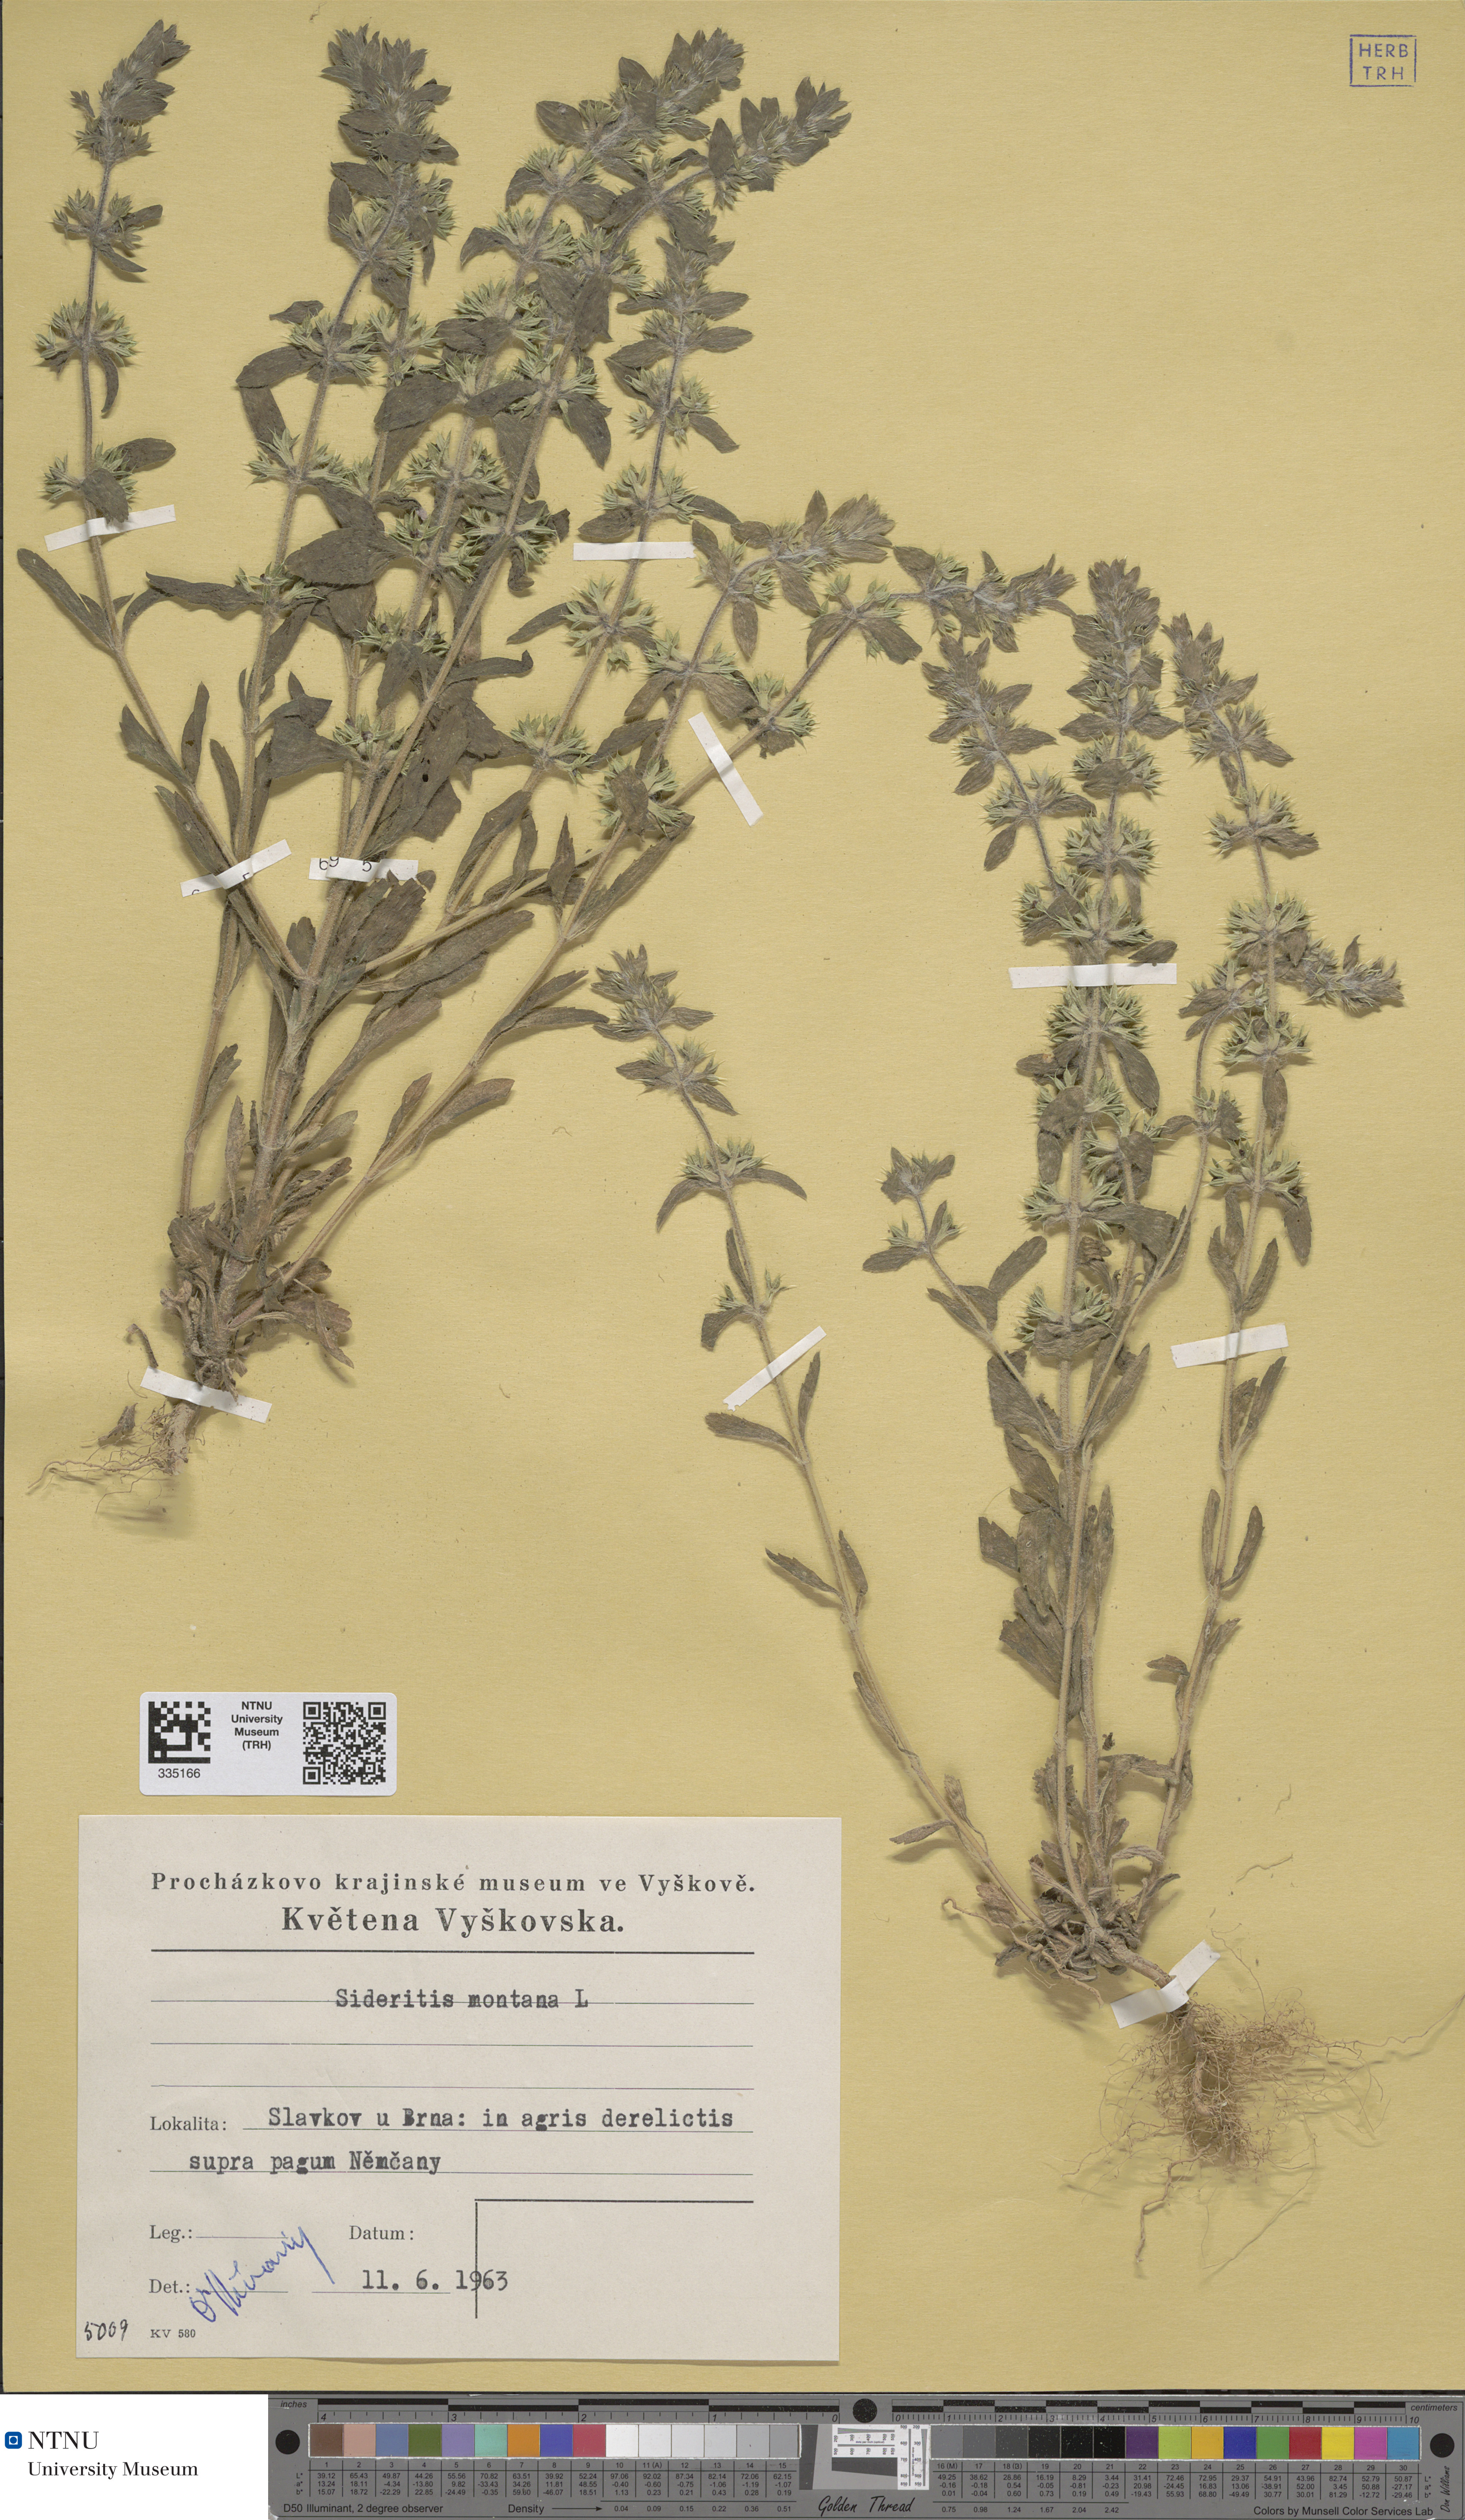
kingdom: Plantae
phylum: Tracheophyta
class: Magnoliopsida
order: Lamiales
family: Lamiaceae
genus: Sideritis
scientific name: Sideritis montana
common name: Mountain ironwort
